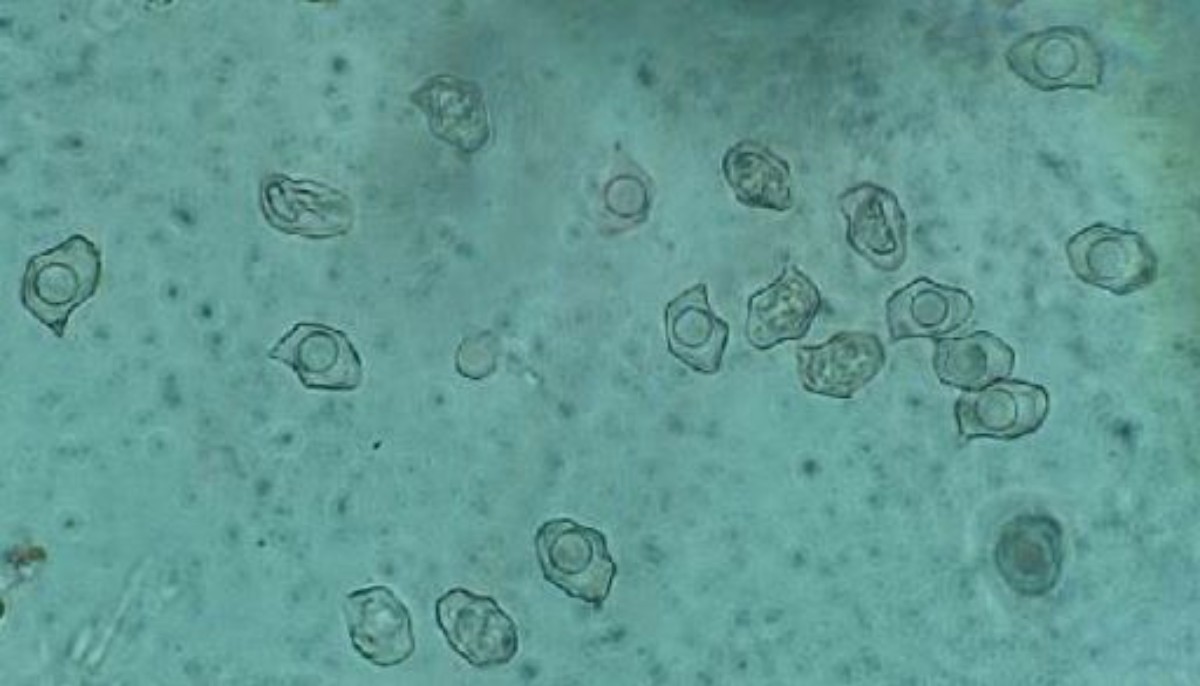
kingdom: Fungi
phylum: Basidiomycota
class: Agaricomycetes
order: Agaricales
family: Entolomataceae
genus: Entoloma
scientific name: Entoloma
